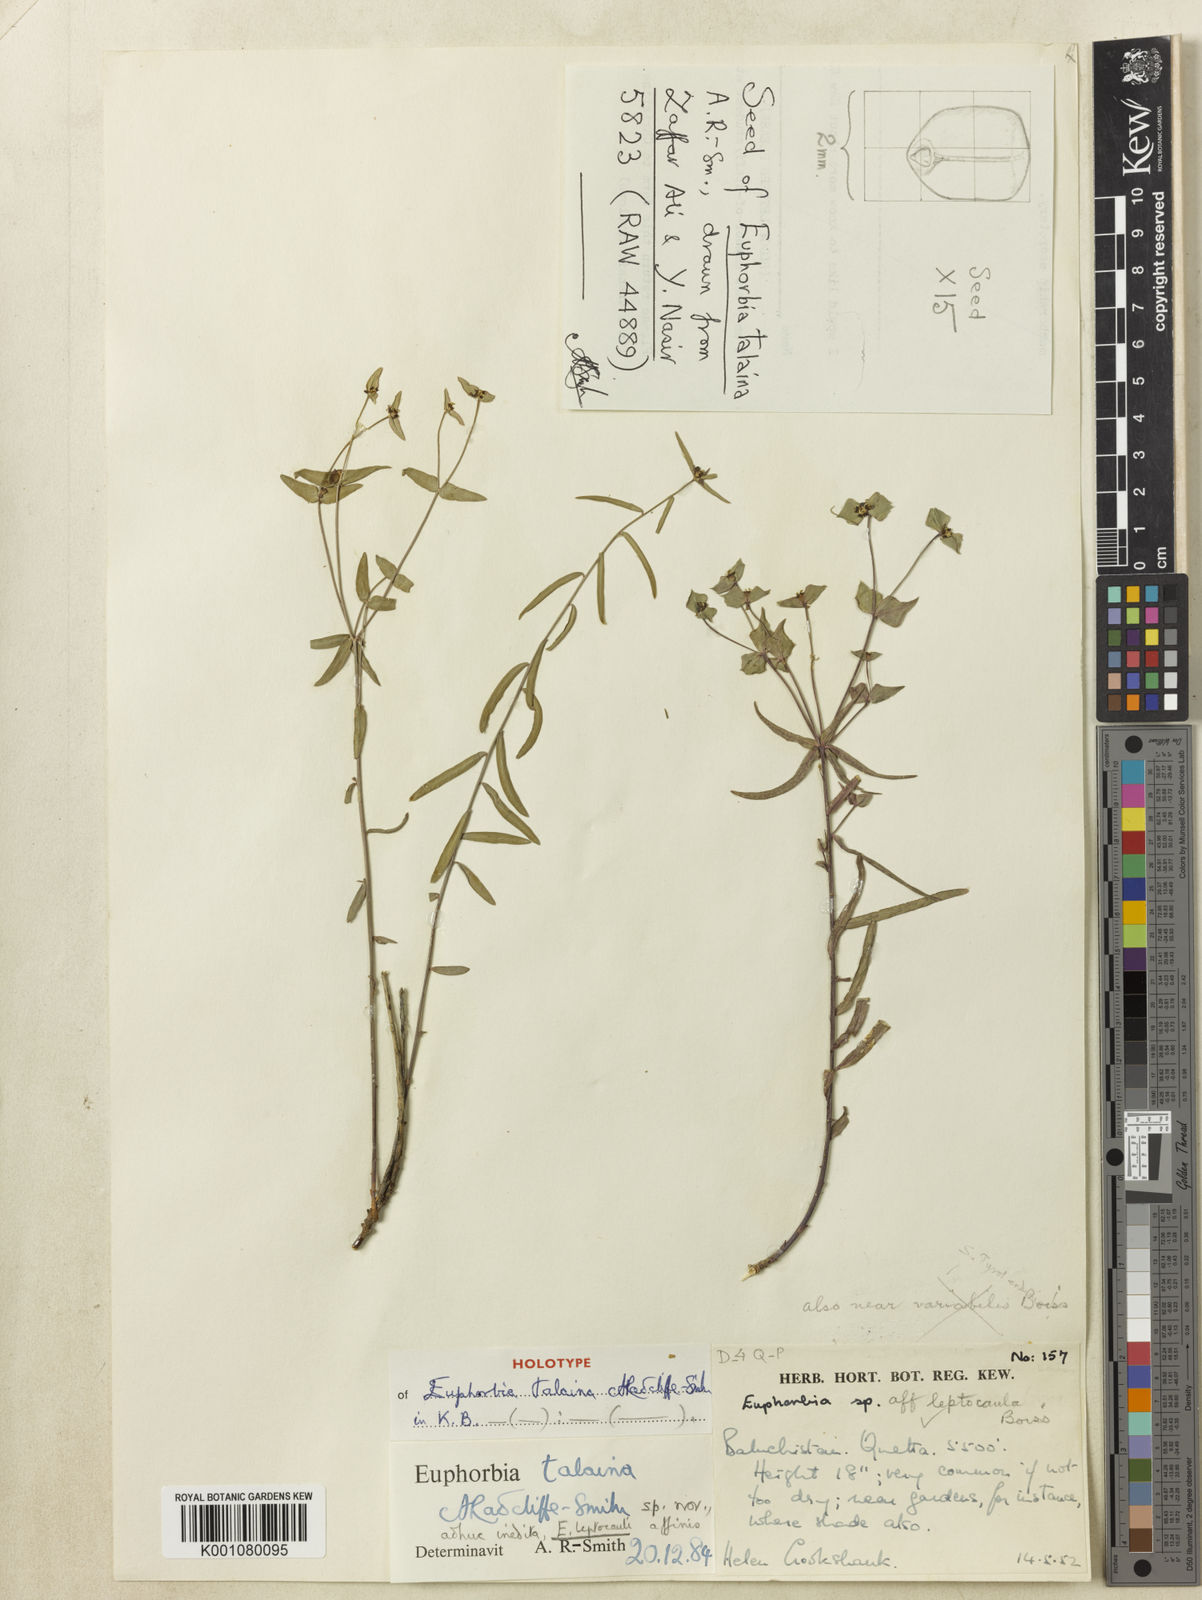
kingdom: Plantae
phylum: Tracheophyta
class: Magnoliopsida
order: Malpighiales
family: Euphorbiaceae
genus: Euphorbia
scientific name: Euphorbia talaina
